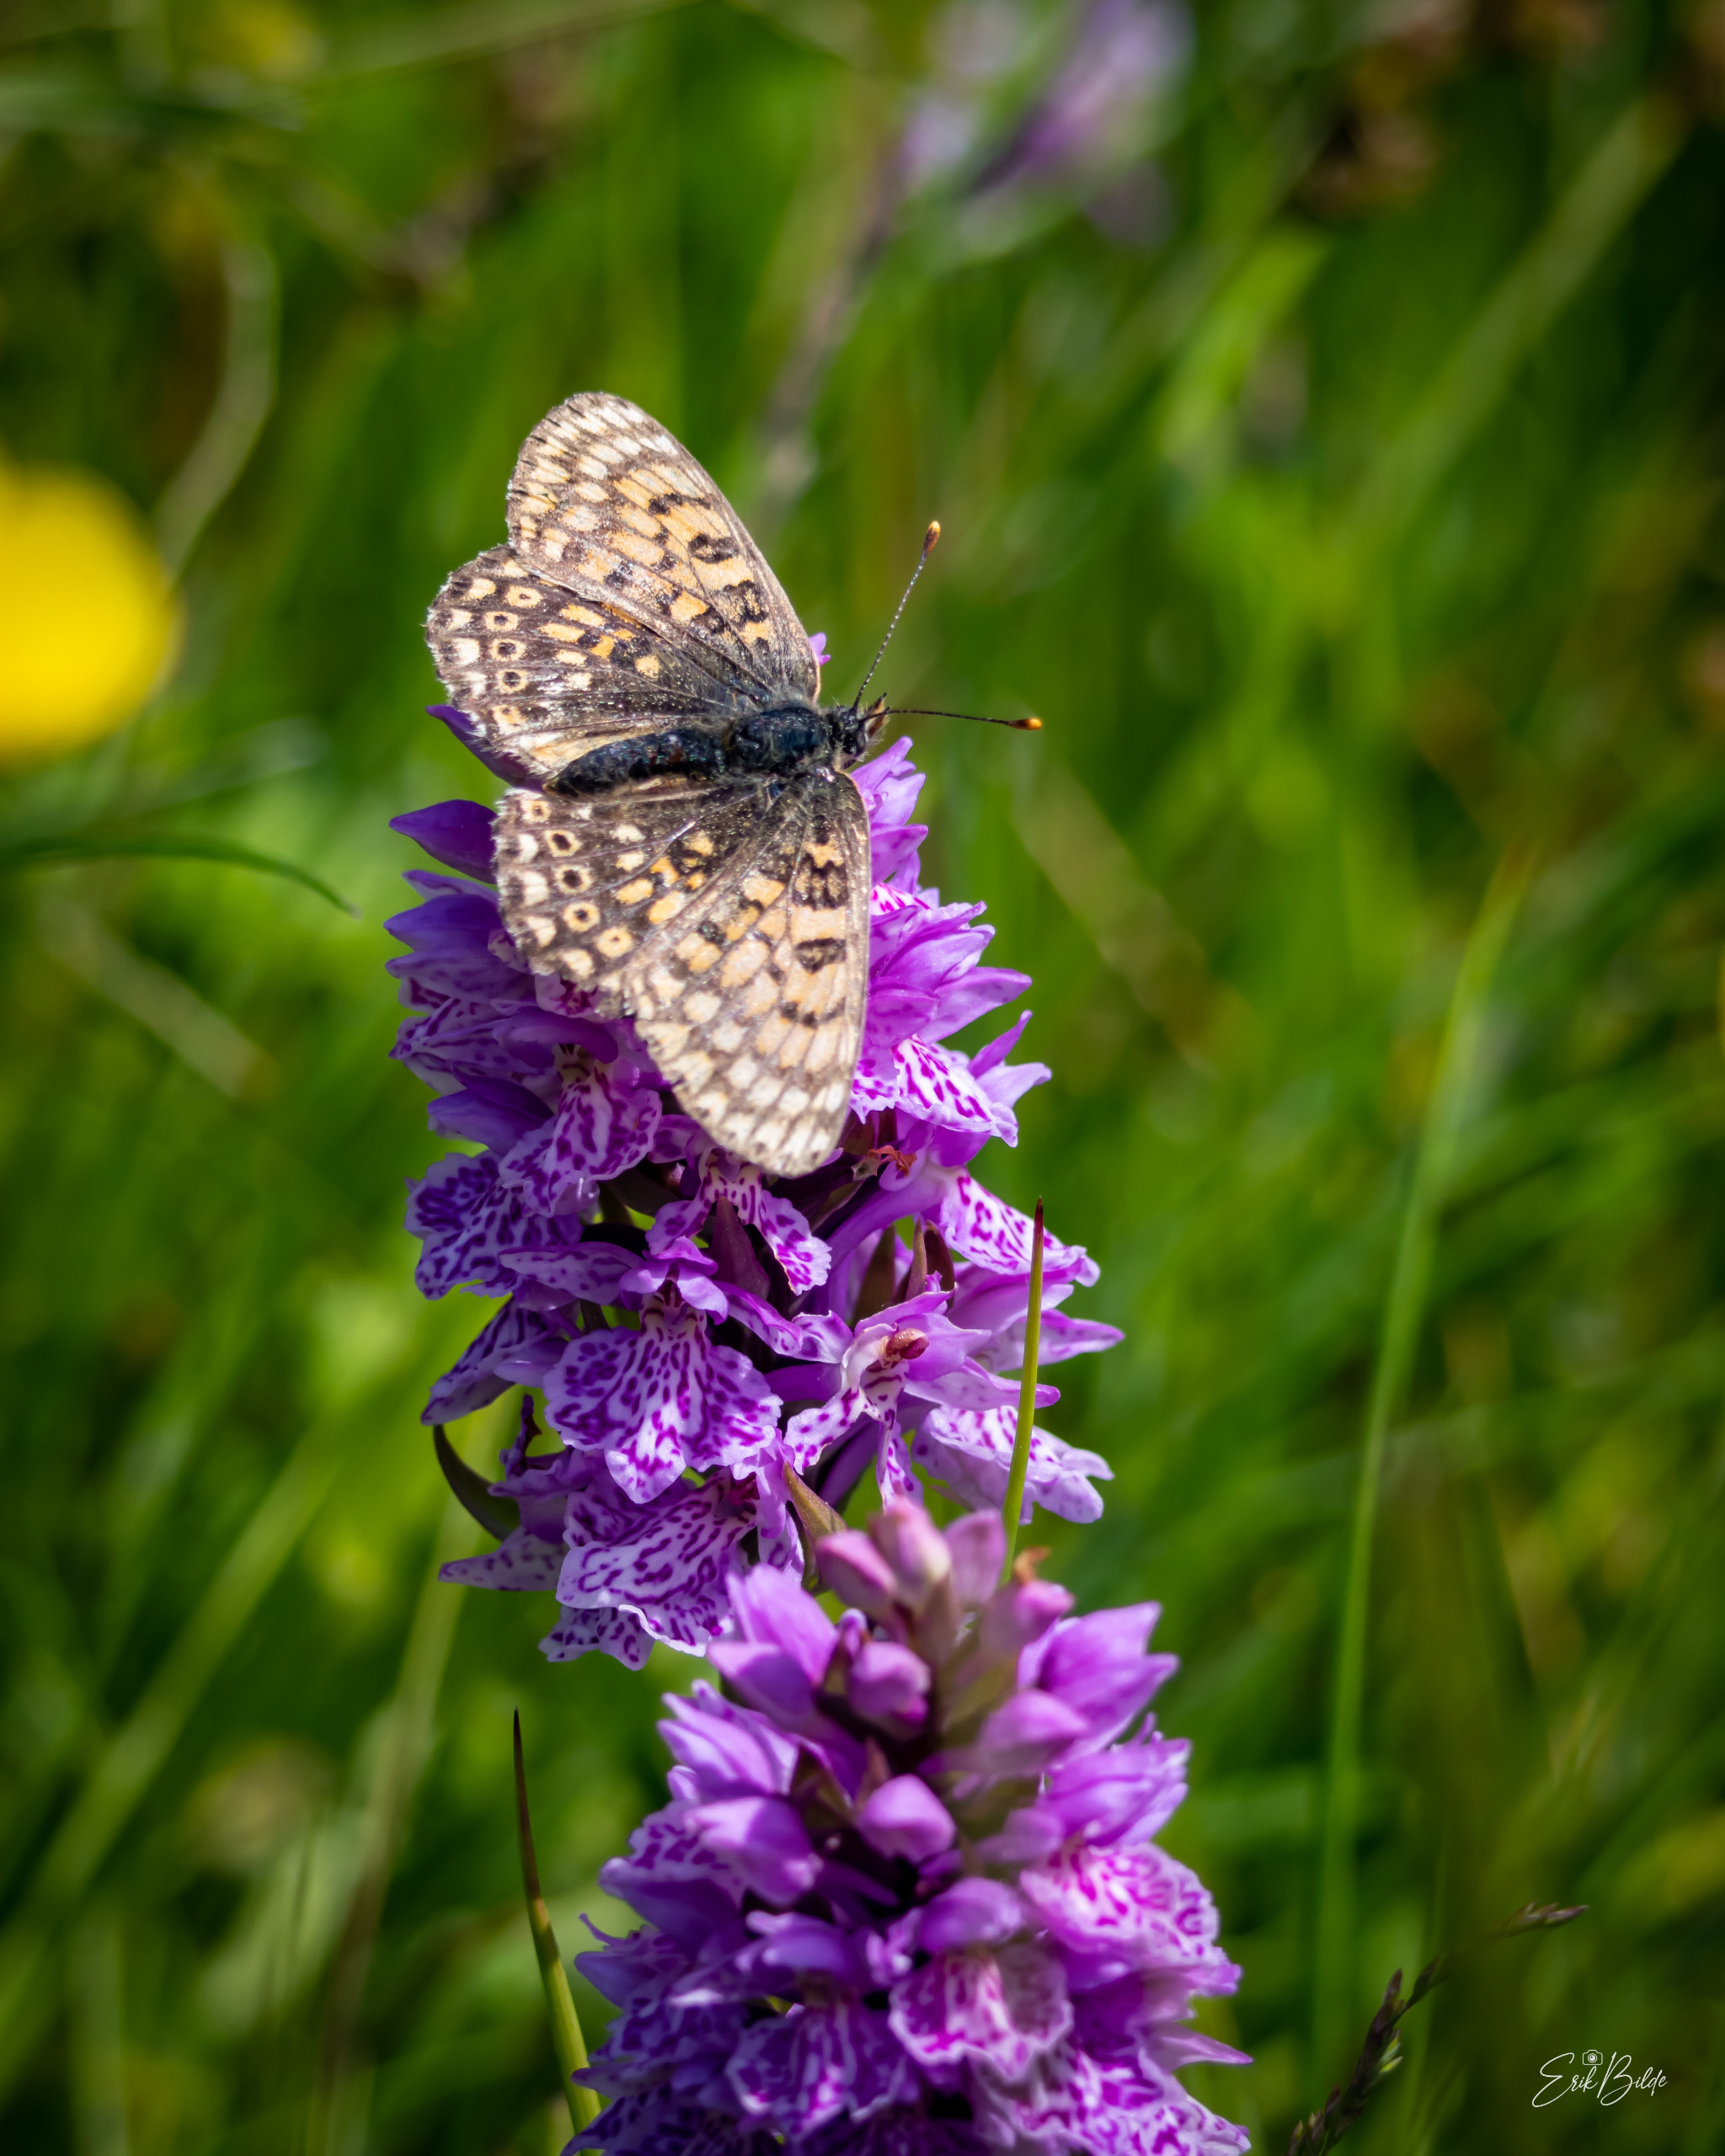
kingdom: Animalia
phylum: Arthropoda
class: Insecta
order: Lepidoptera
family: Nymphalidae
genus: Melitaea
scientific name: Melitaea cinxia
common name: Okkergul pletvinge
